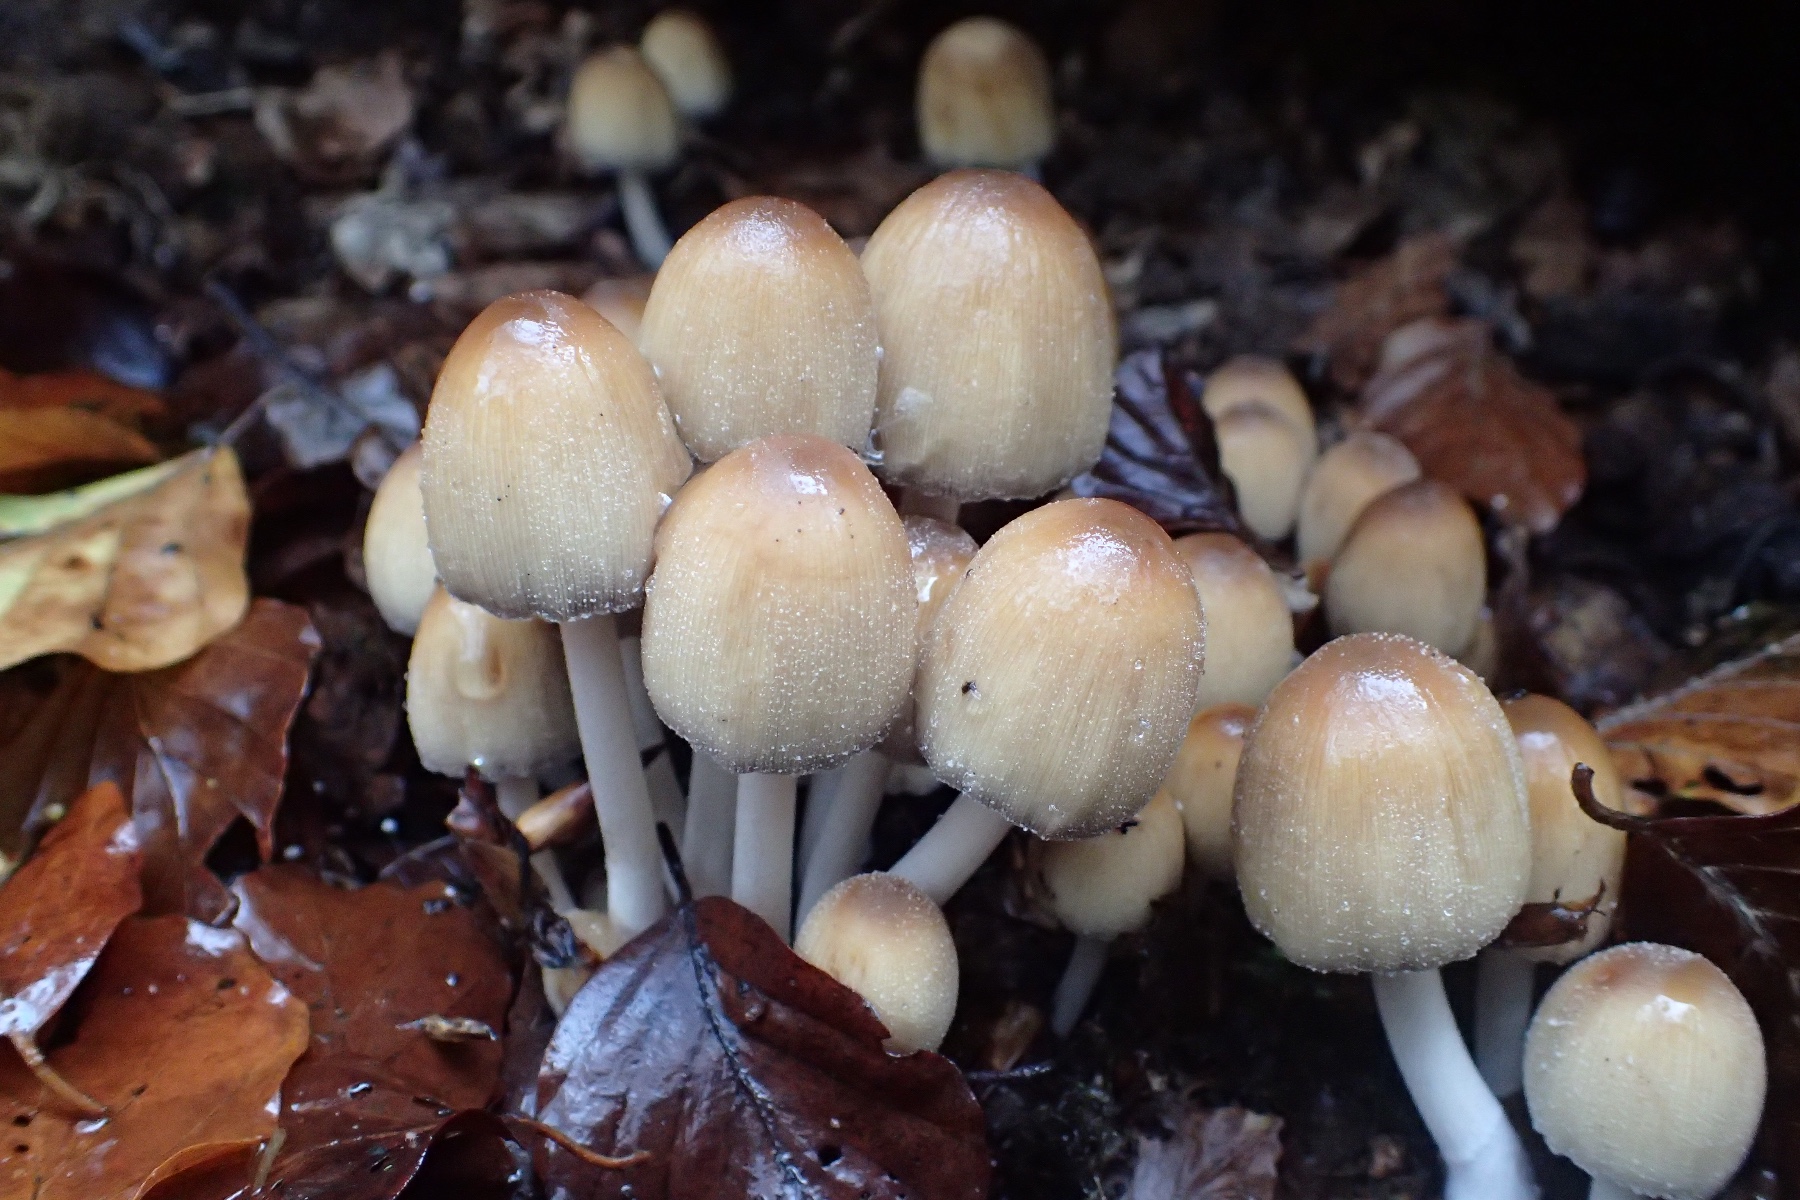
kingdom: Fungi
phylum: Basidiomycota
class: Agaricomycetes
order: Agaricales
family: Psathyrellaceae
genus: Coprinellus
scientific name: Coprinellus micaceus
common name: glimmer-blækhat
